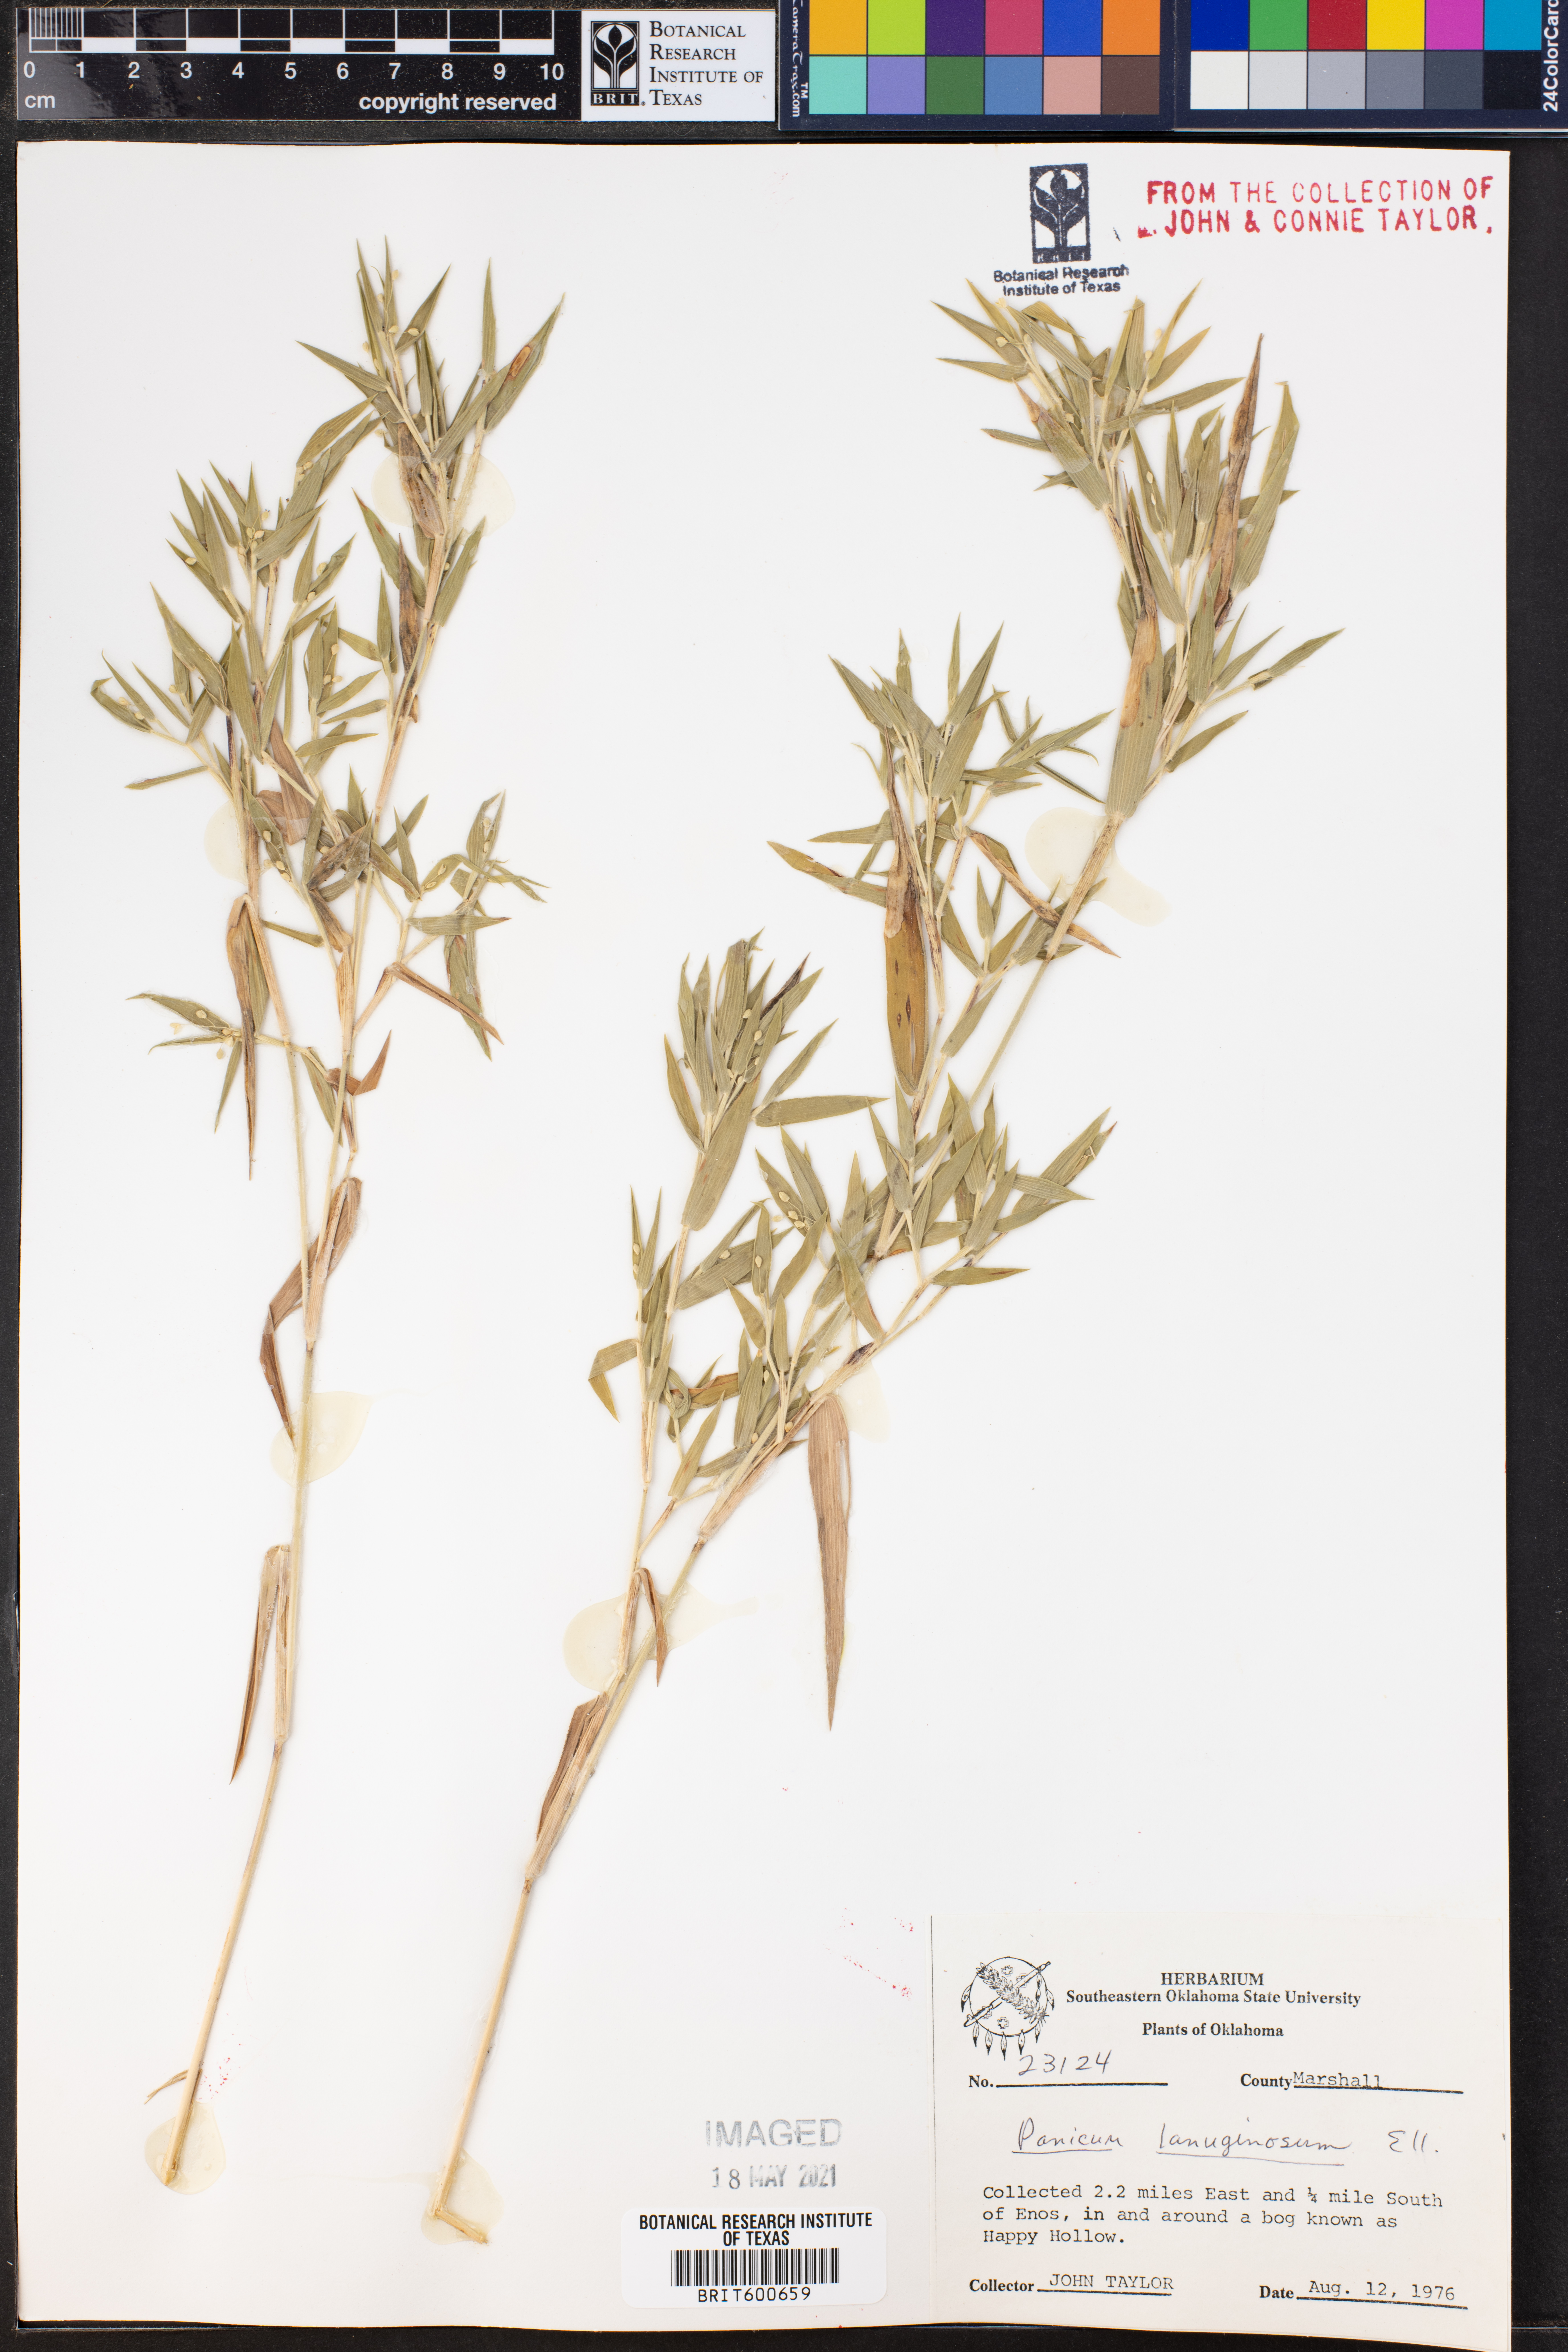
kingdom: Plantae
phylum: Tracheophyta
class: Liliopsida
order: Poales
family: Poaceae
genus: Dichanthelium
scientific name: Dichanthelium lanuginosum
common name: Woolly panicgrass
